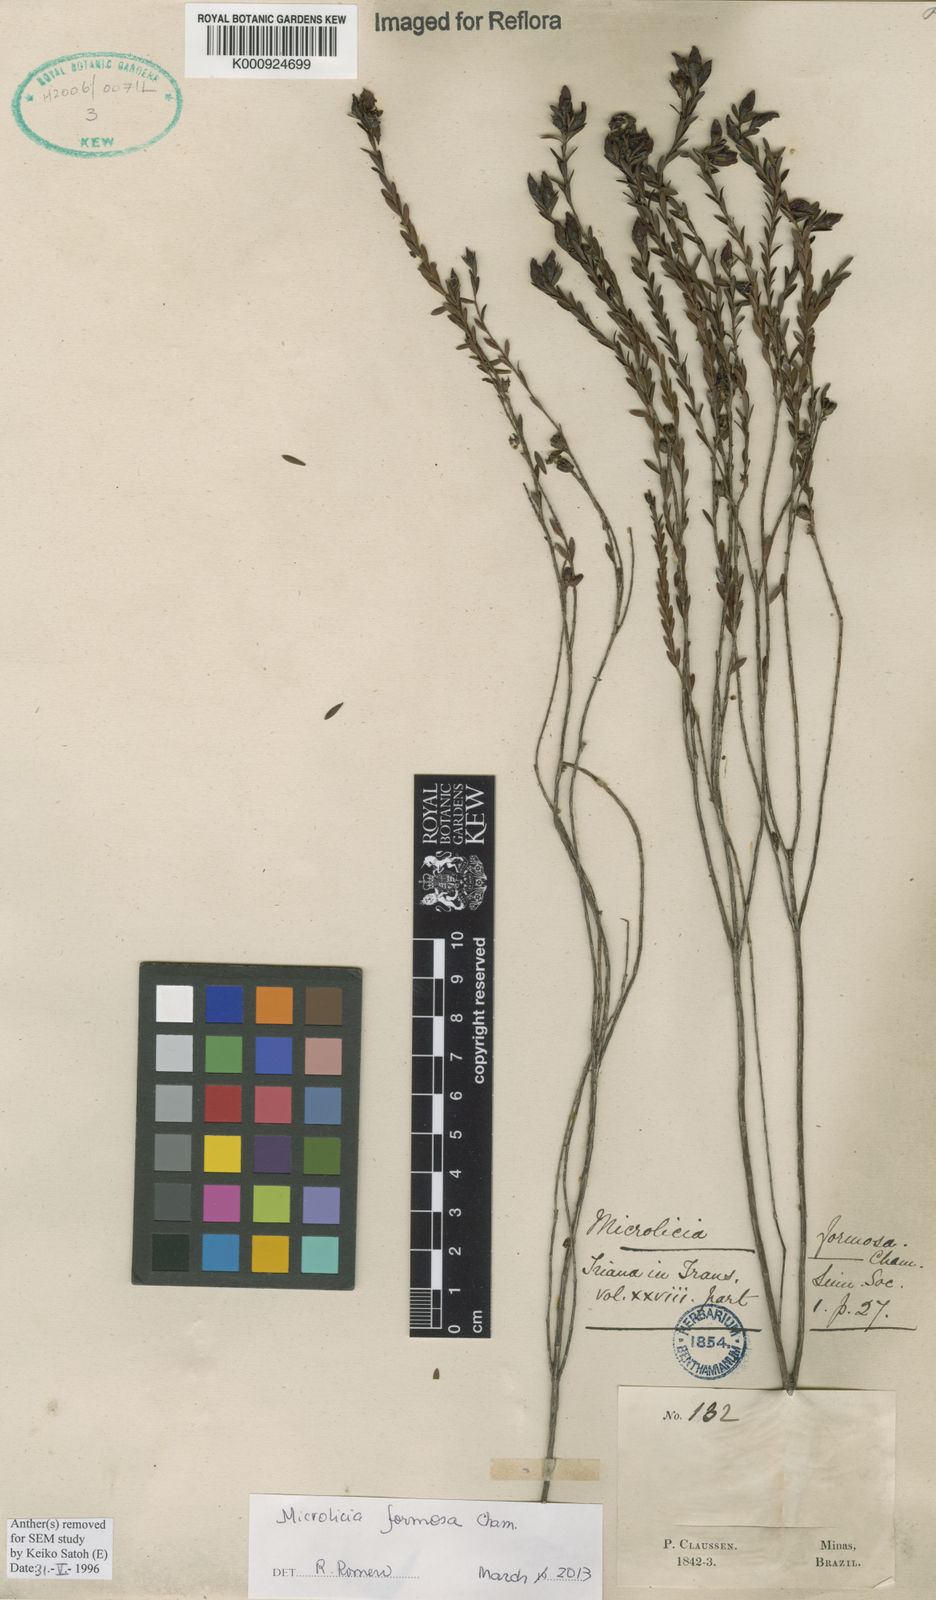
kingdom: Plantae
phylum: Tracheophyta
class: Magnoliopsida
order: Myrtales
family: Melastomataceae
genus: Microlicia
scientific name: Microlicia formosa
